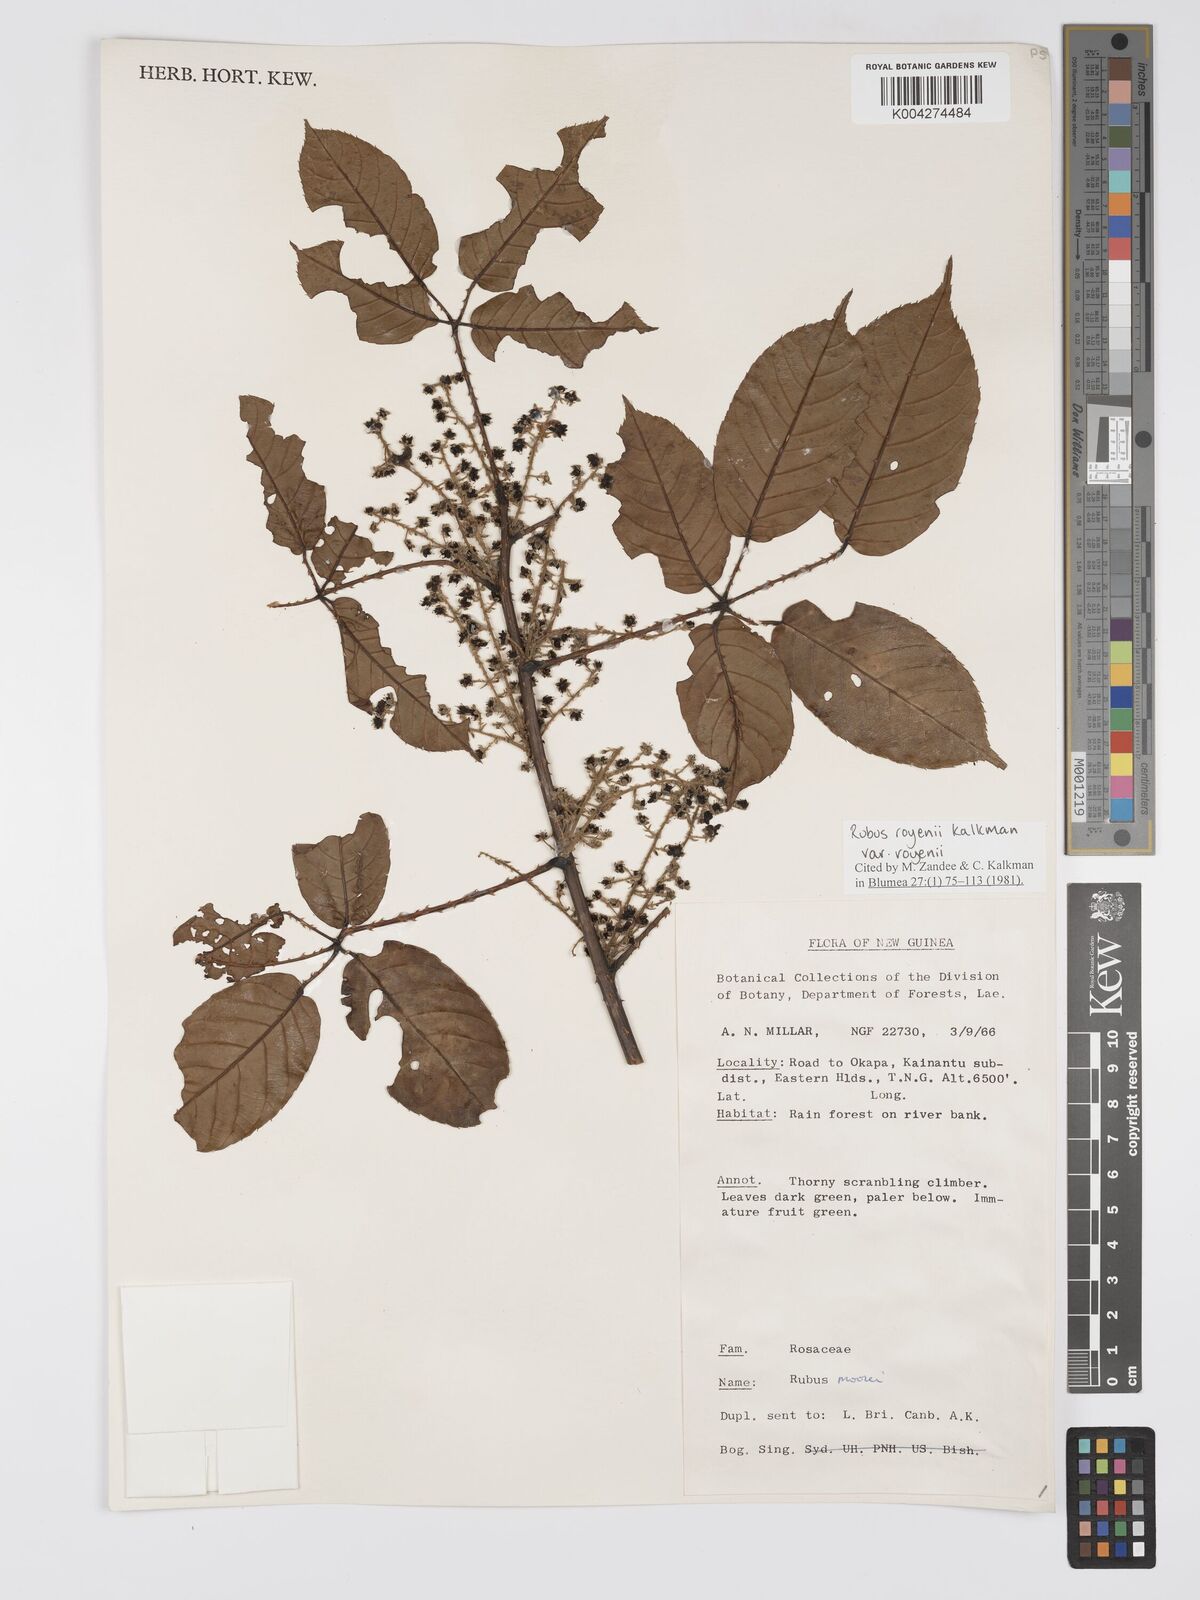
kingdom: Plantae
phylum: Tracheophyta
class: Magnoliopsida
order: Rosales
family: Rosaceae
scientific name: Rosaceae
